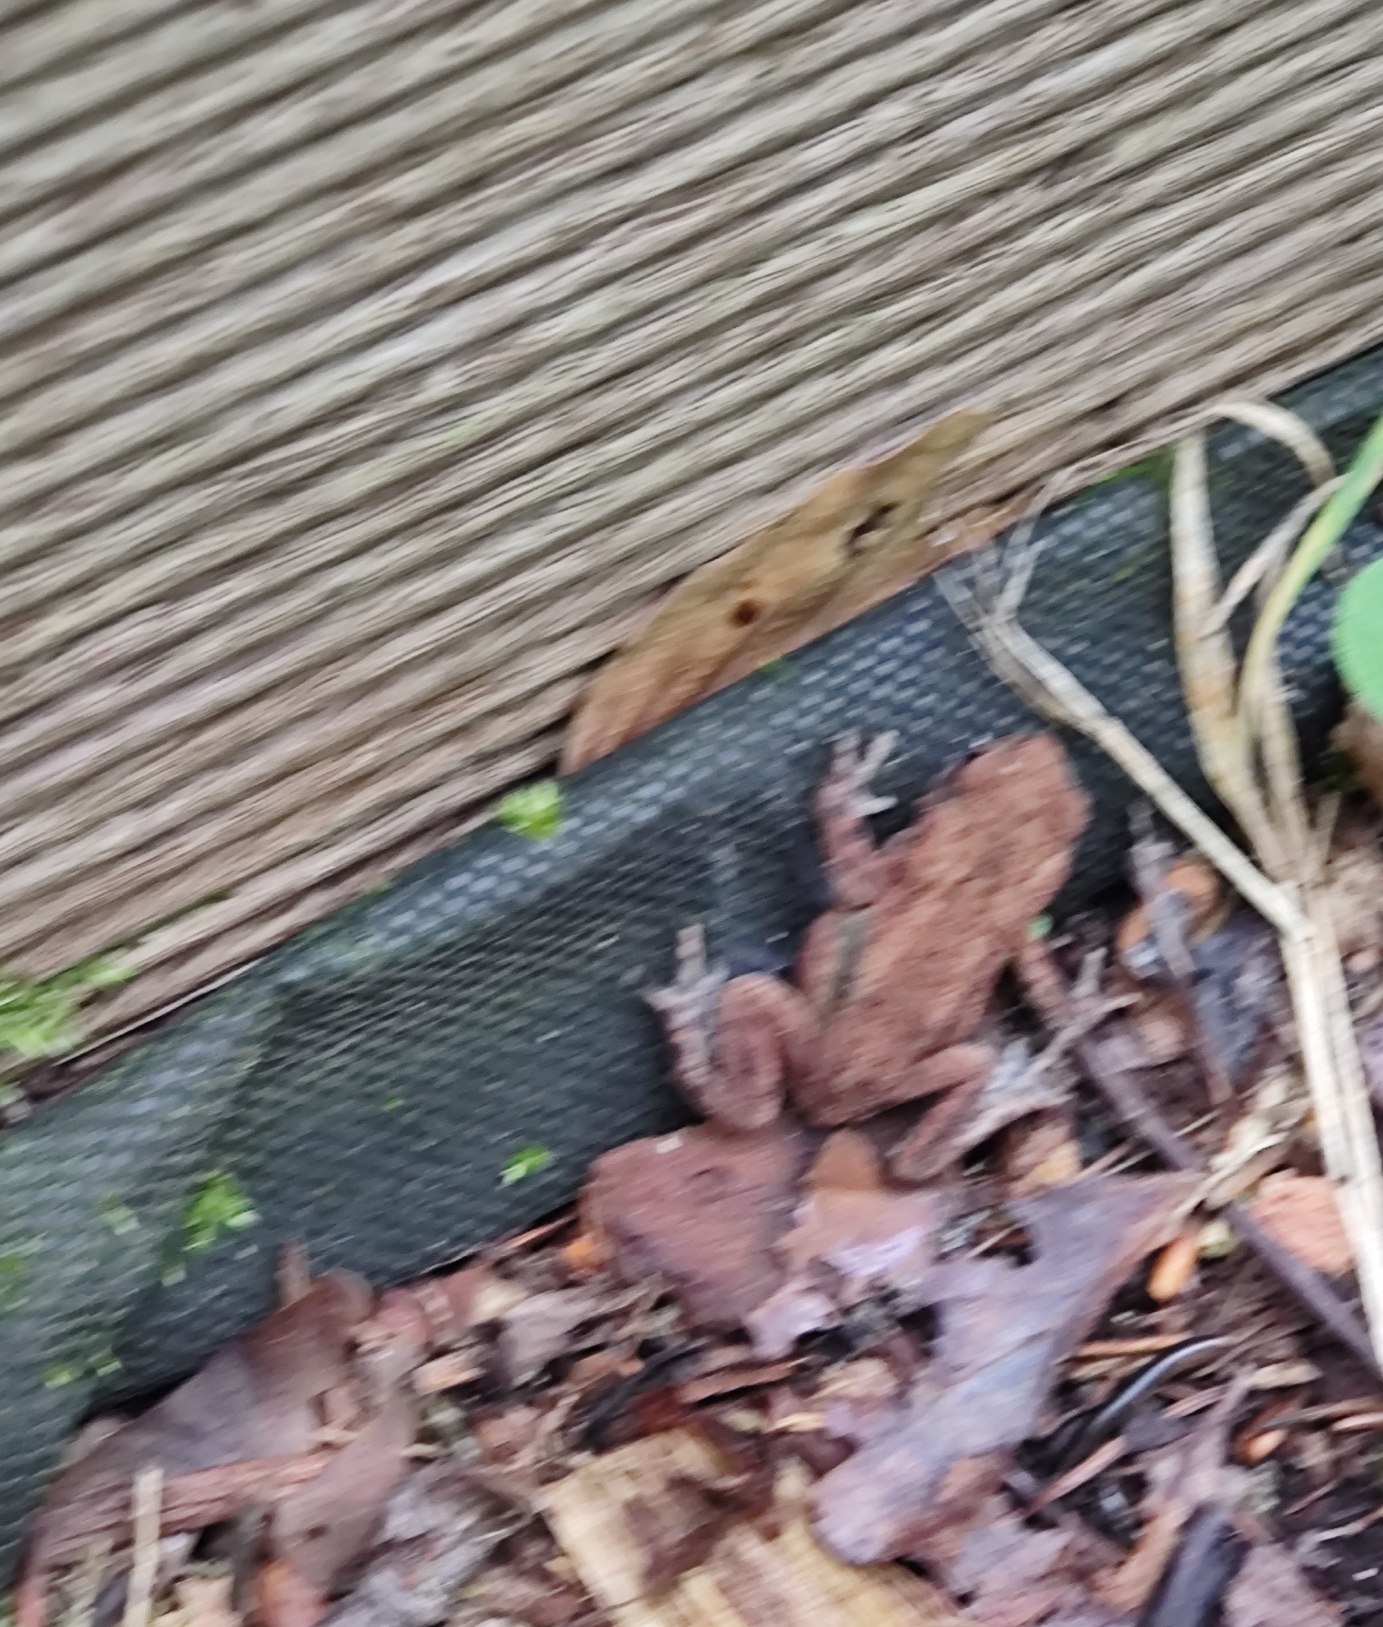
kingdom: Animalia
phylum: Chordata
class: Amphibia
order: Anura
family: Bufonidae
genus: Bufo
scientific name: Bufo bufo
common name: Skrubtudse
